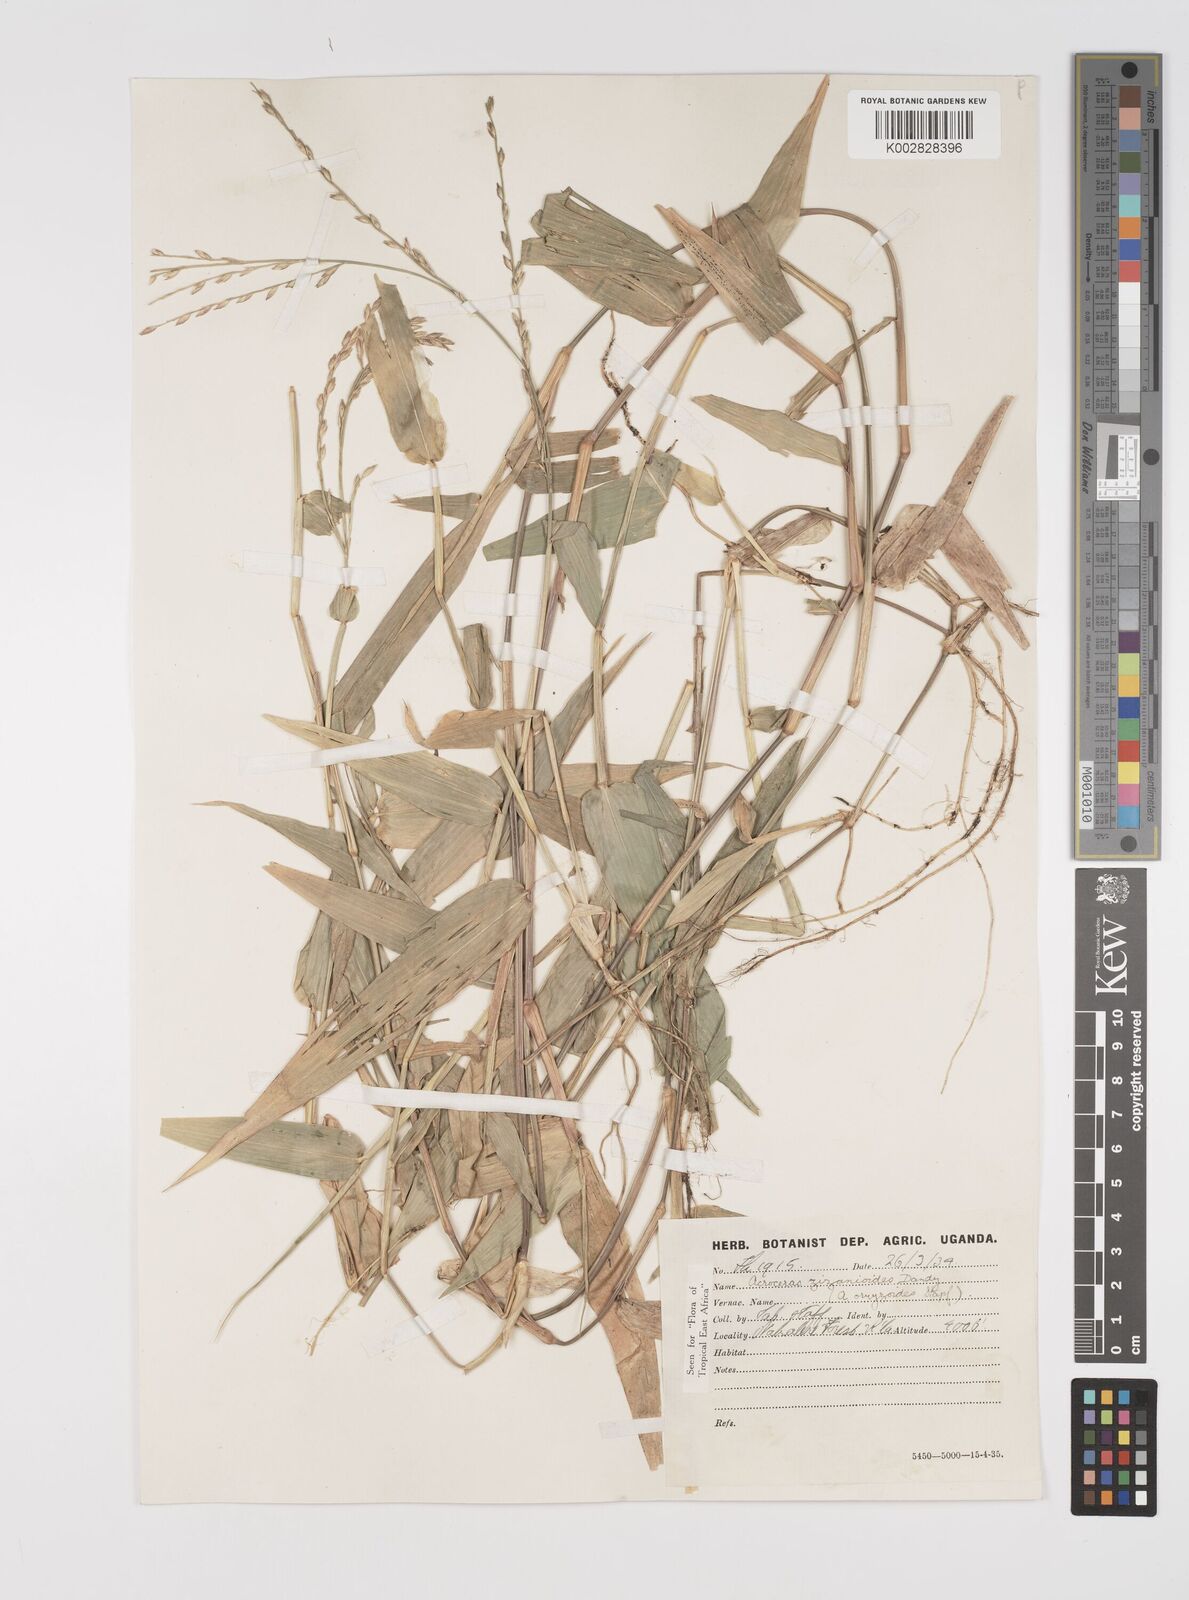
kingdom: Plantae
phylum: Tracheophyta
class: Liliopsida
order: Poales
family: Poaceae
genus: Acroceras
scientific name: Acroceras zizanioides
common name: Oat grass
